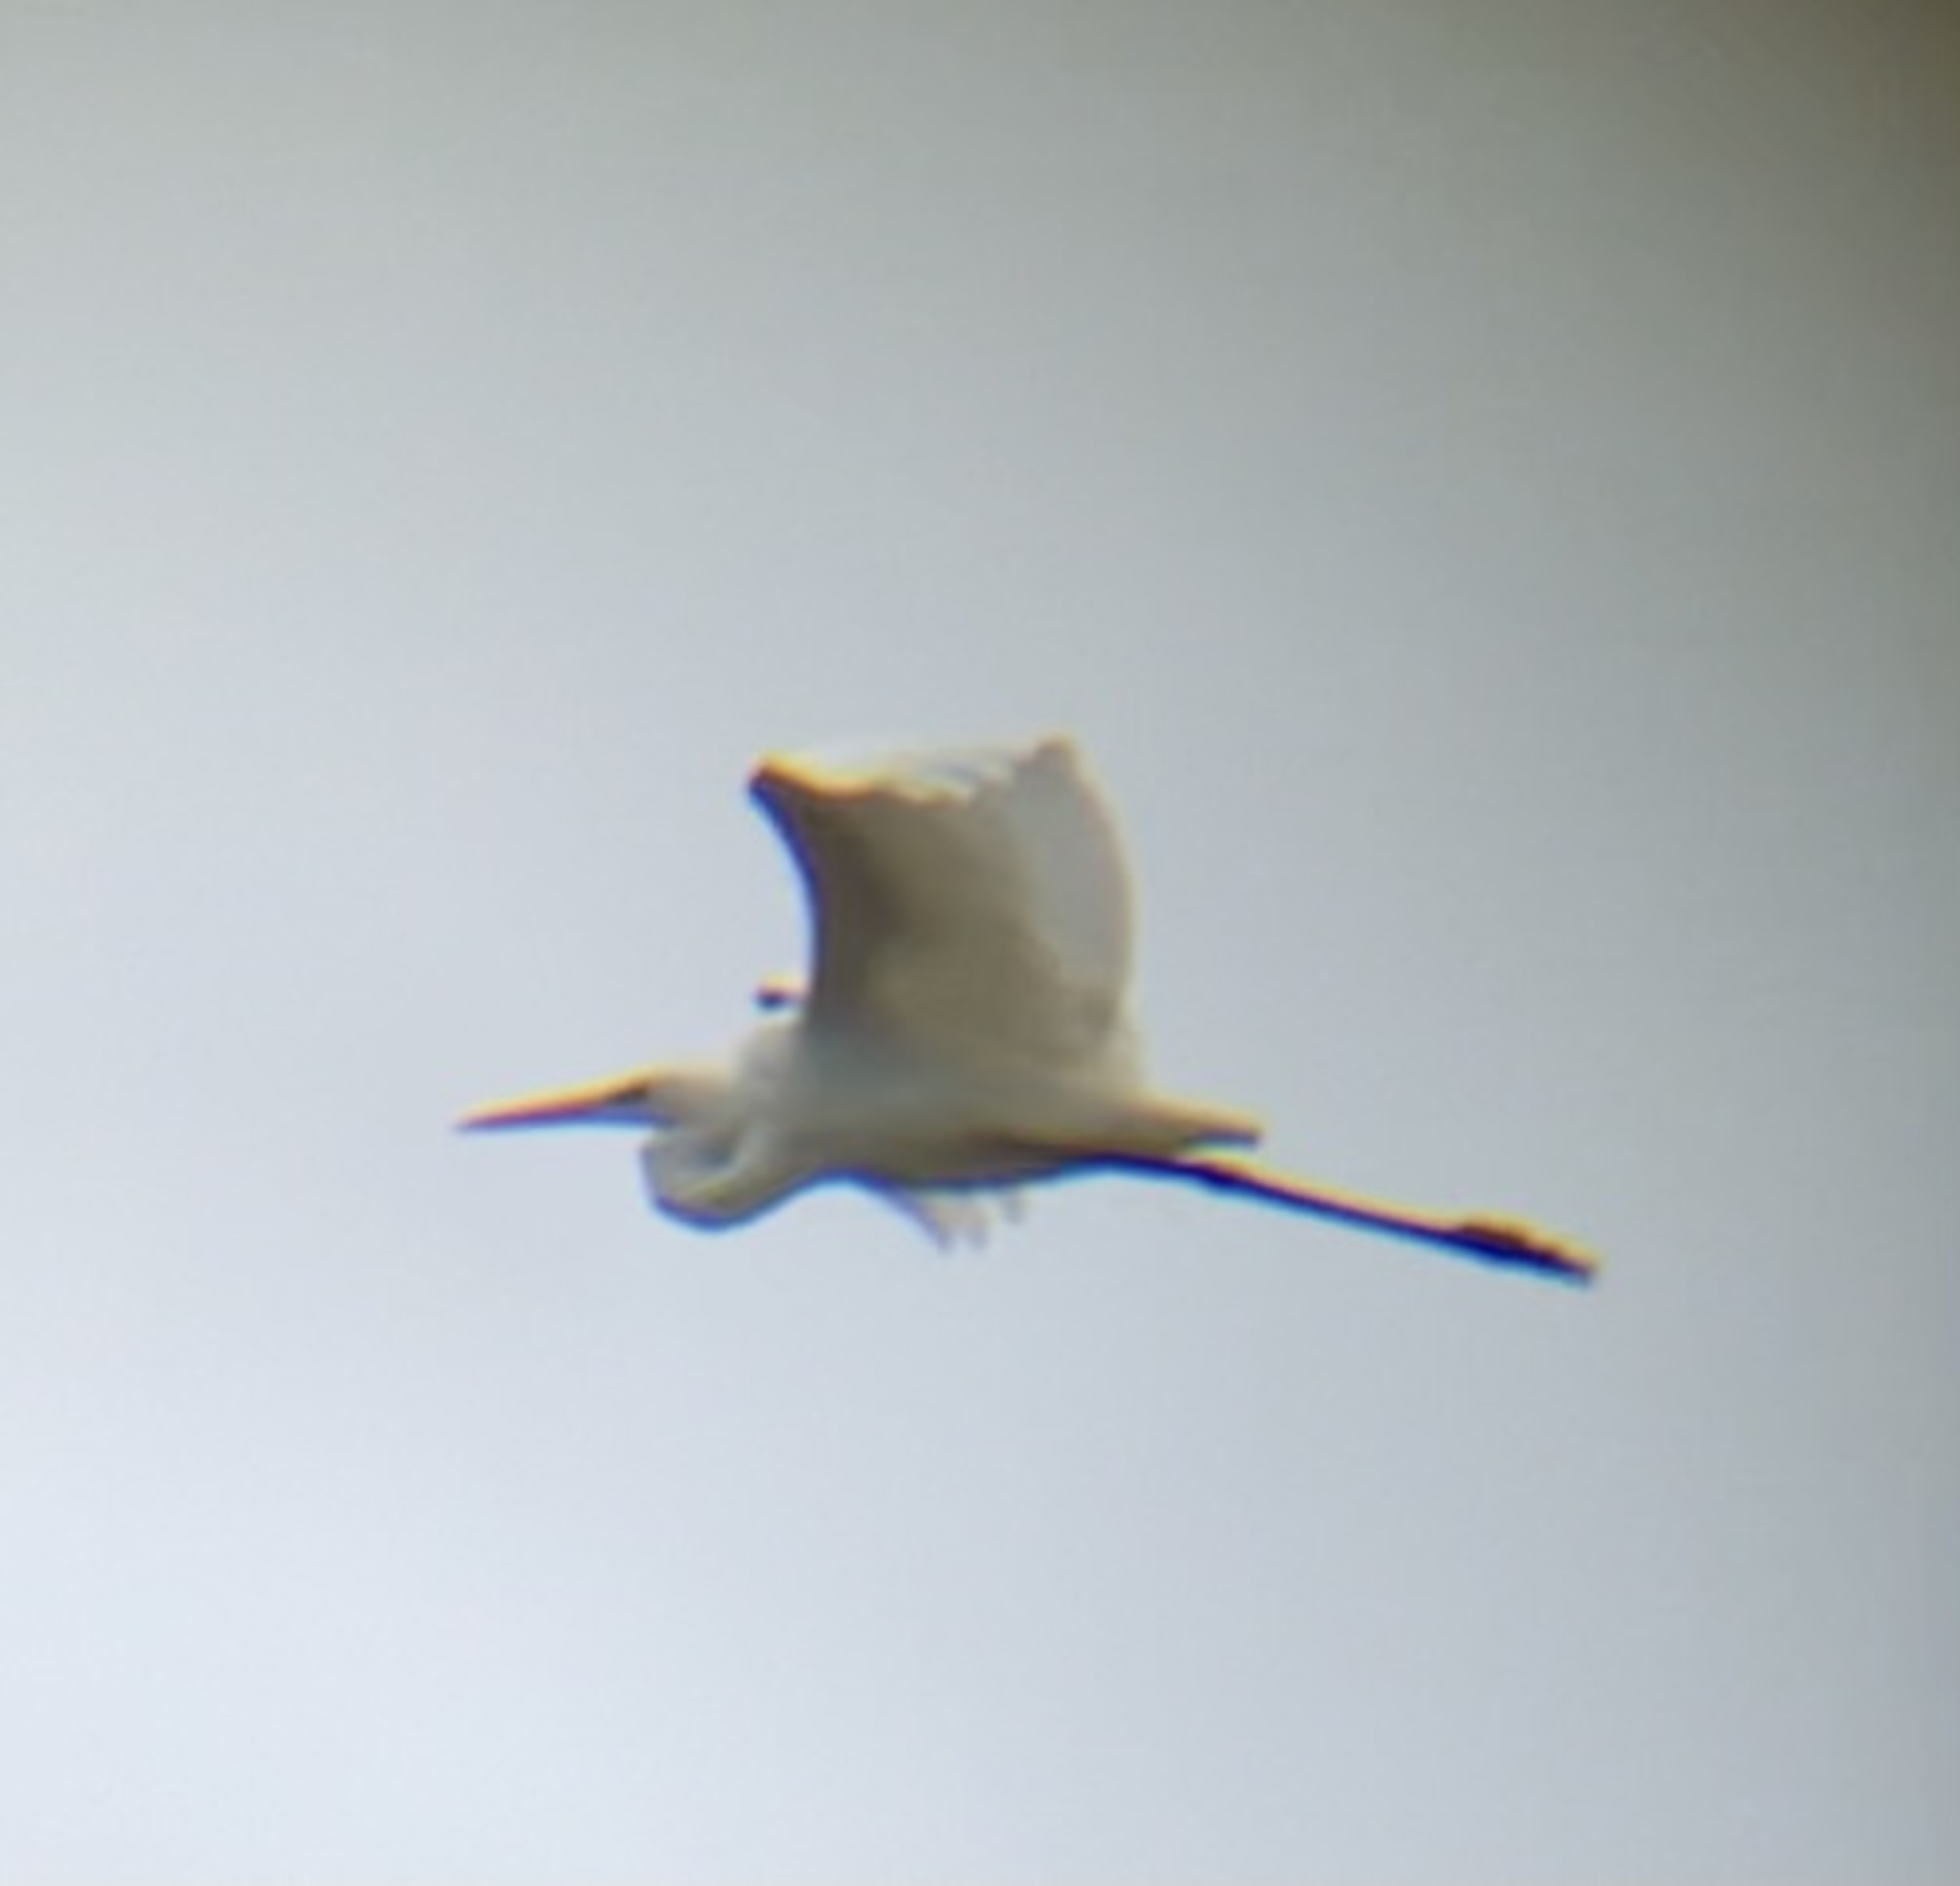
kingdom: Animalia
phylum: Chordata
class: Aves
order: Pelecaniformes
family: Ardeidae
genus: Ardea
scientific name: Ardea alba
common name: Sølvhejre
